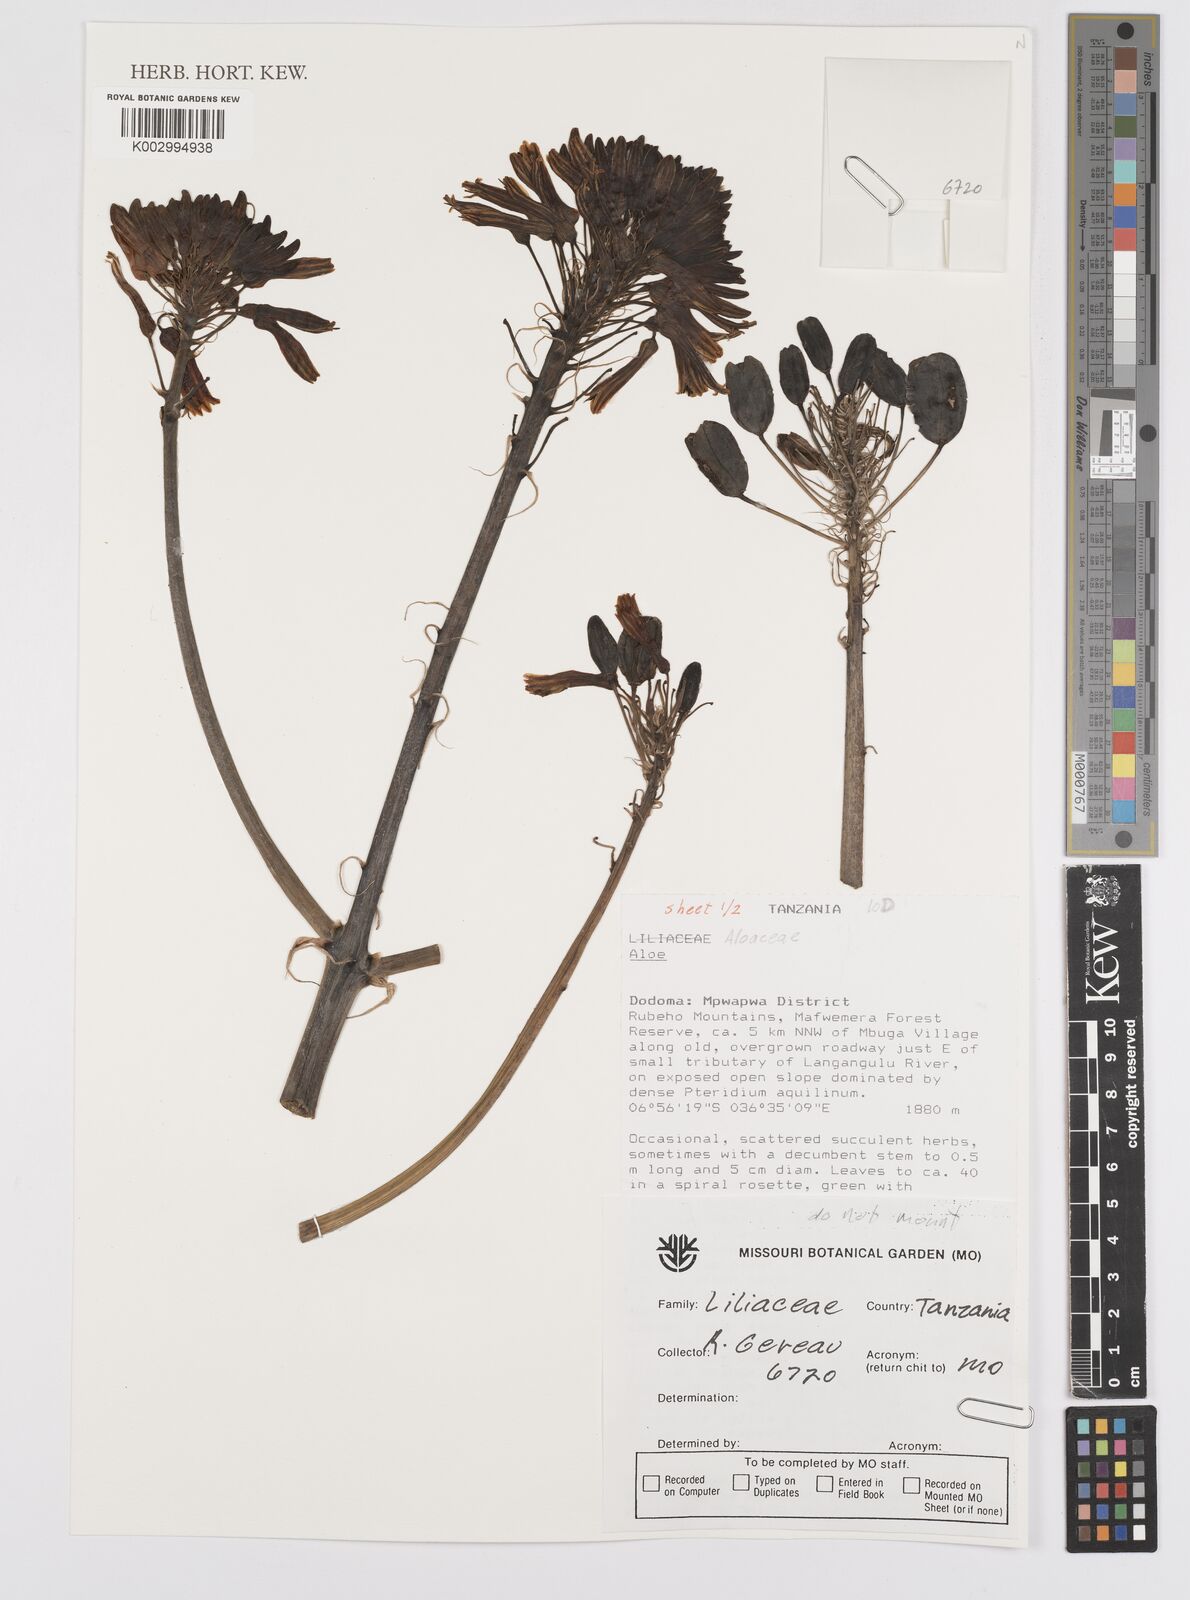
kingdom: Plantae
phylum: Tracheophyta
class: Liliopsida
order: Asparagales
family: Asphodelaceae
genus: Aloe
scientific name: Aloe
